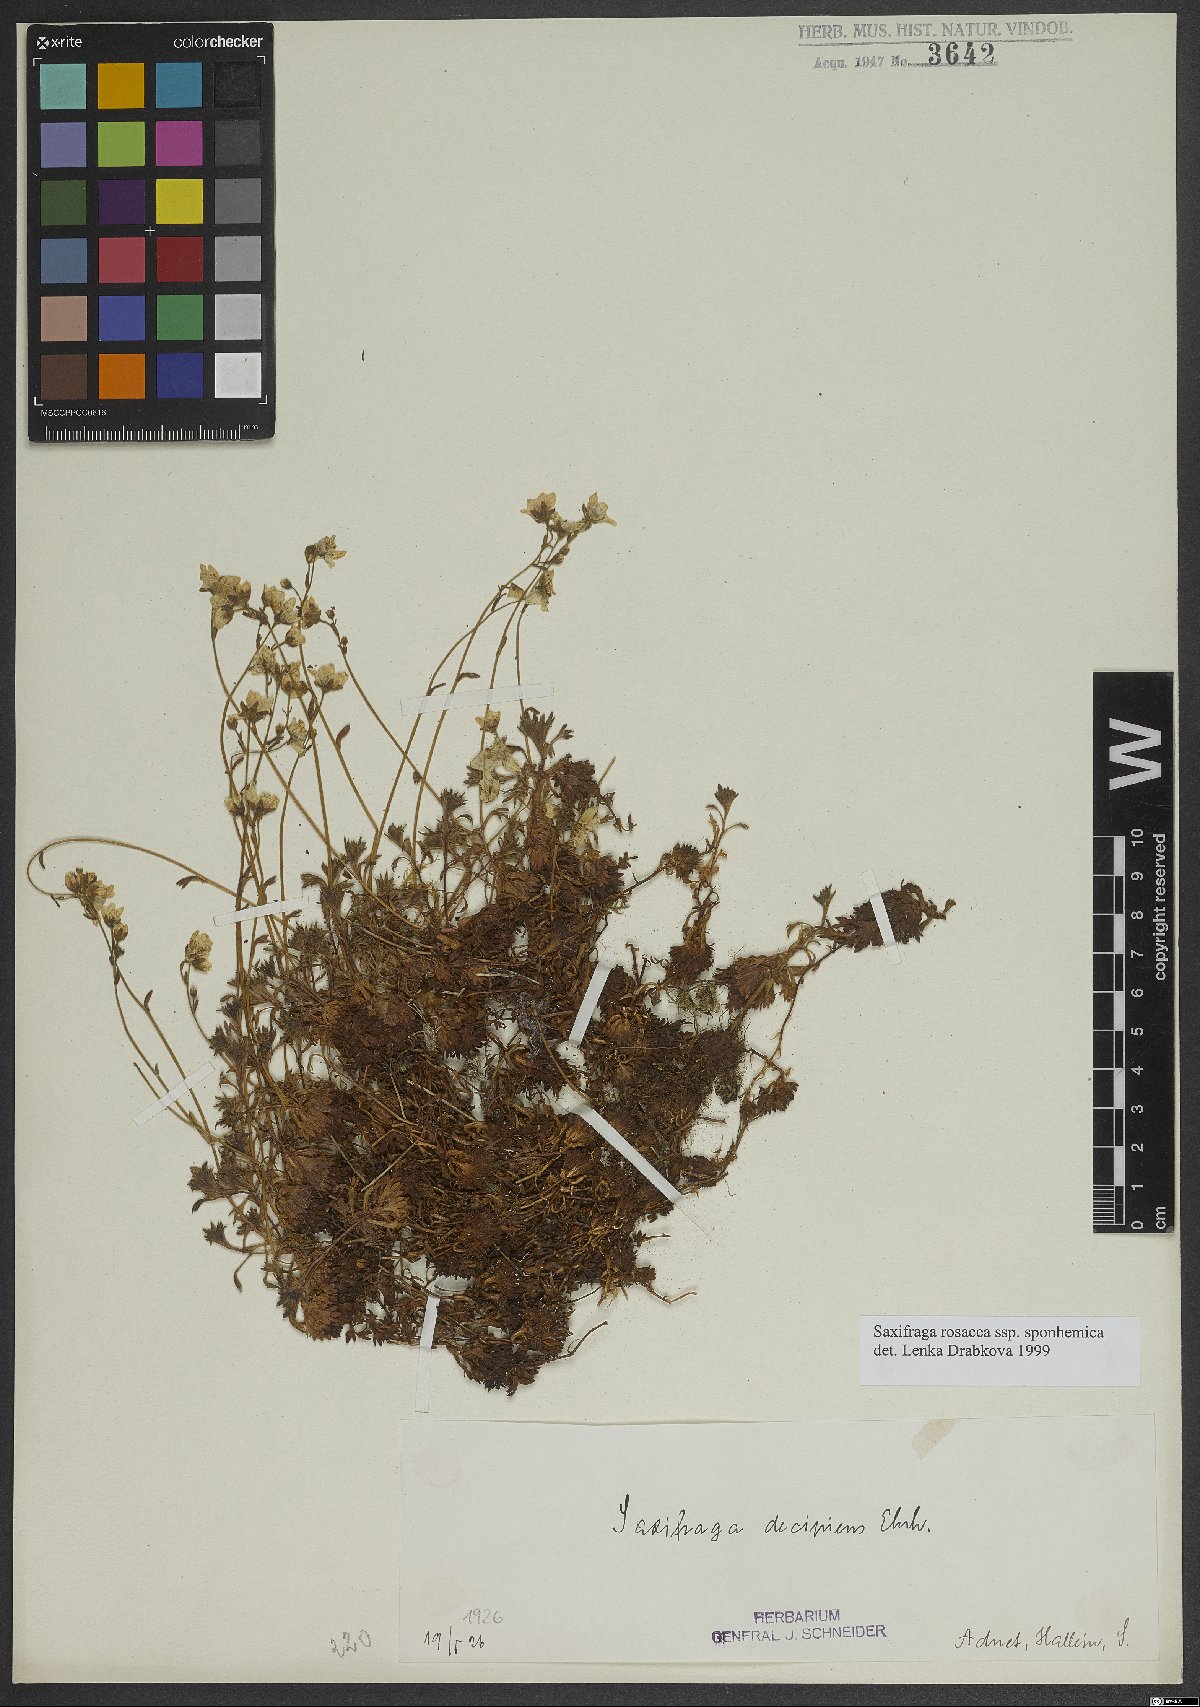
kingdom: Plantae
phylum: Tracheophyta
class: Magnoliopsida
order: Saxifragales
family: Saxifragaceae
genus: Saxifraga
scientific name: Saxifraga rosacea
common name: Irish saxifrage
